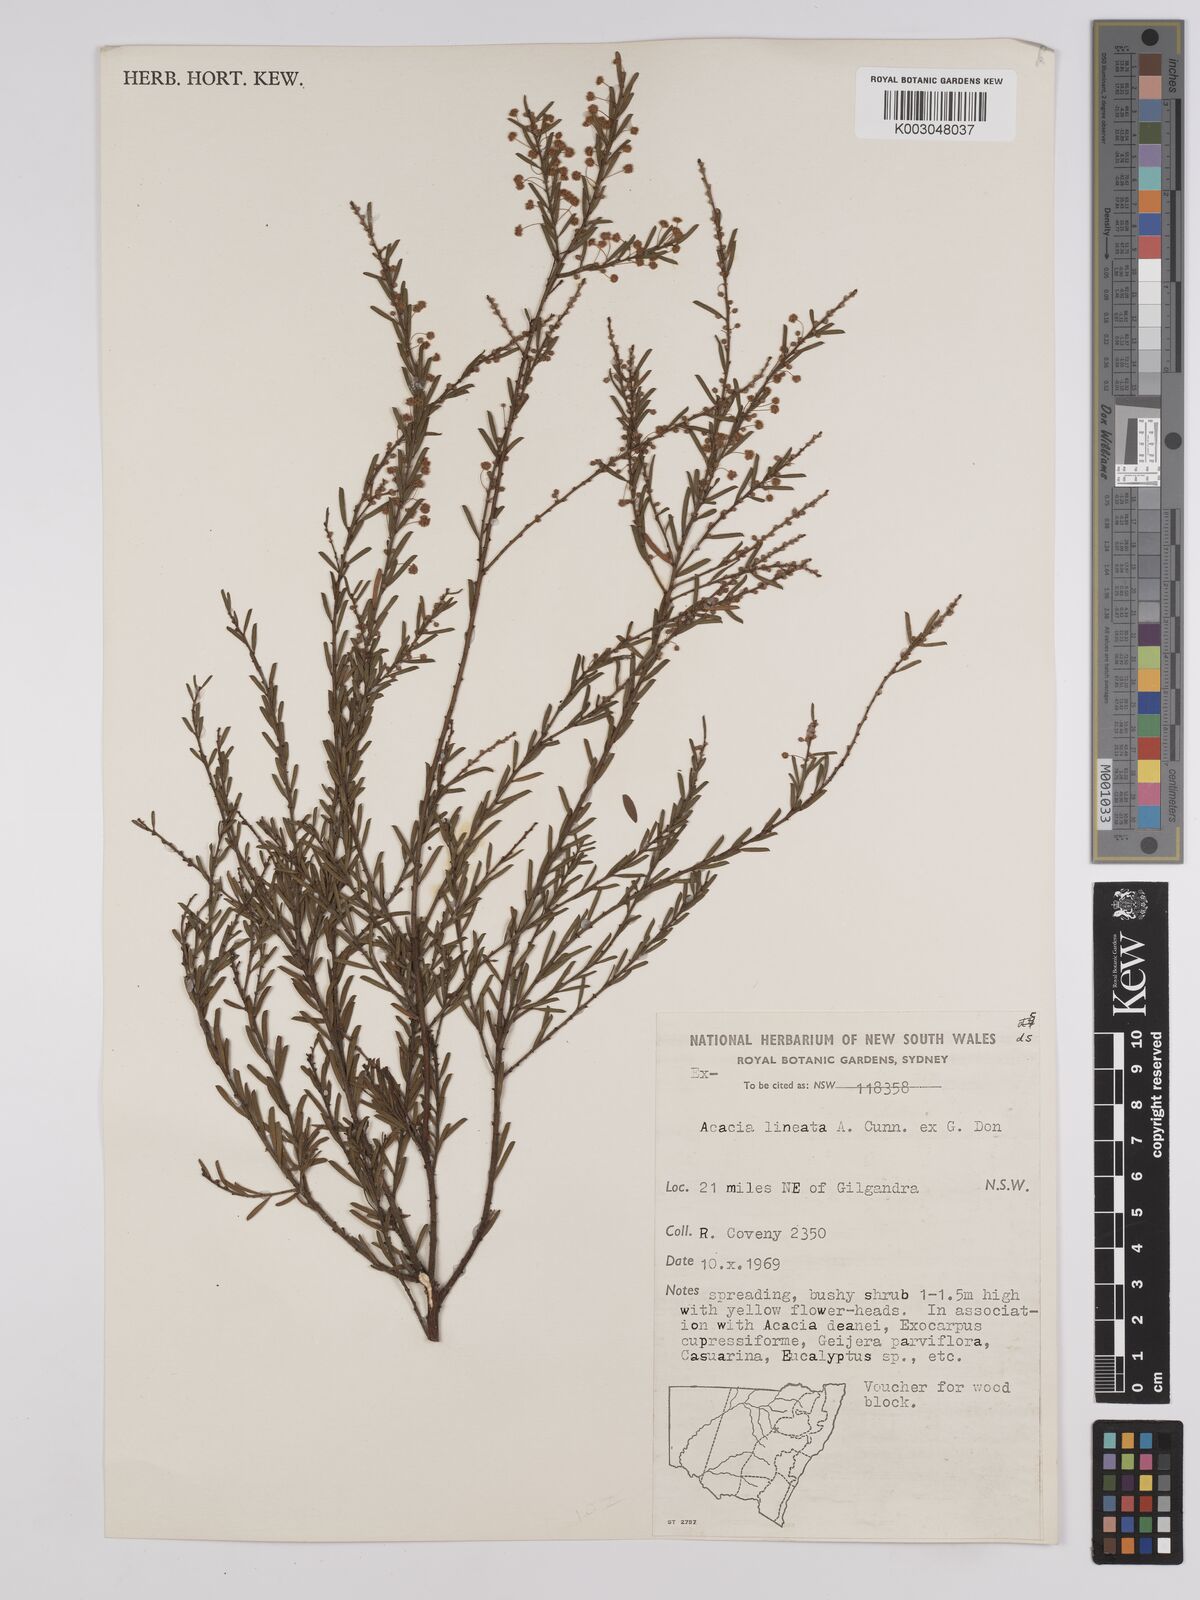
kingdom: Plantae
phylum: Tracheophyta
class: Magnoliopsida
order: Fabales
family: Fabaceae
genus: Acacia
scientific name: Acacia lineata
